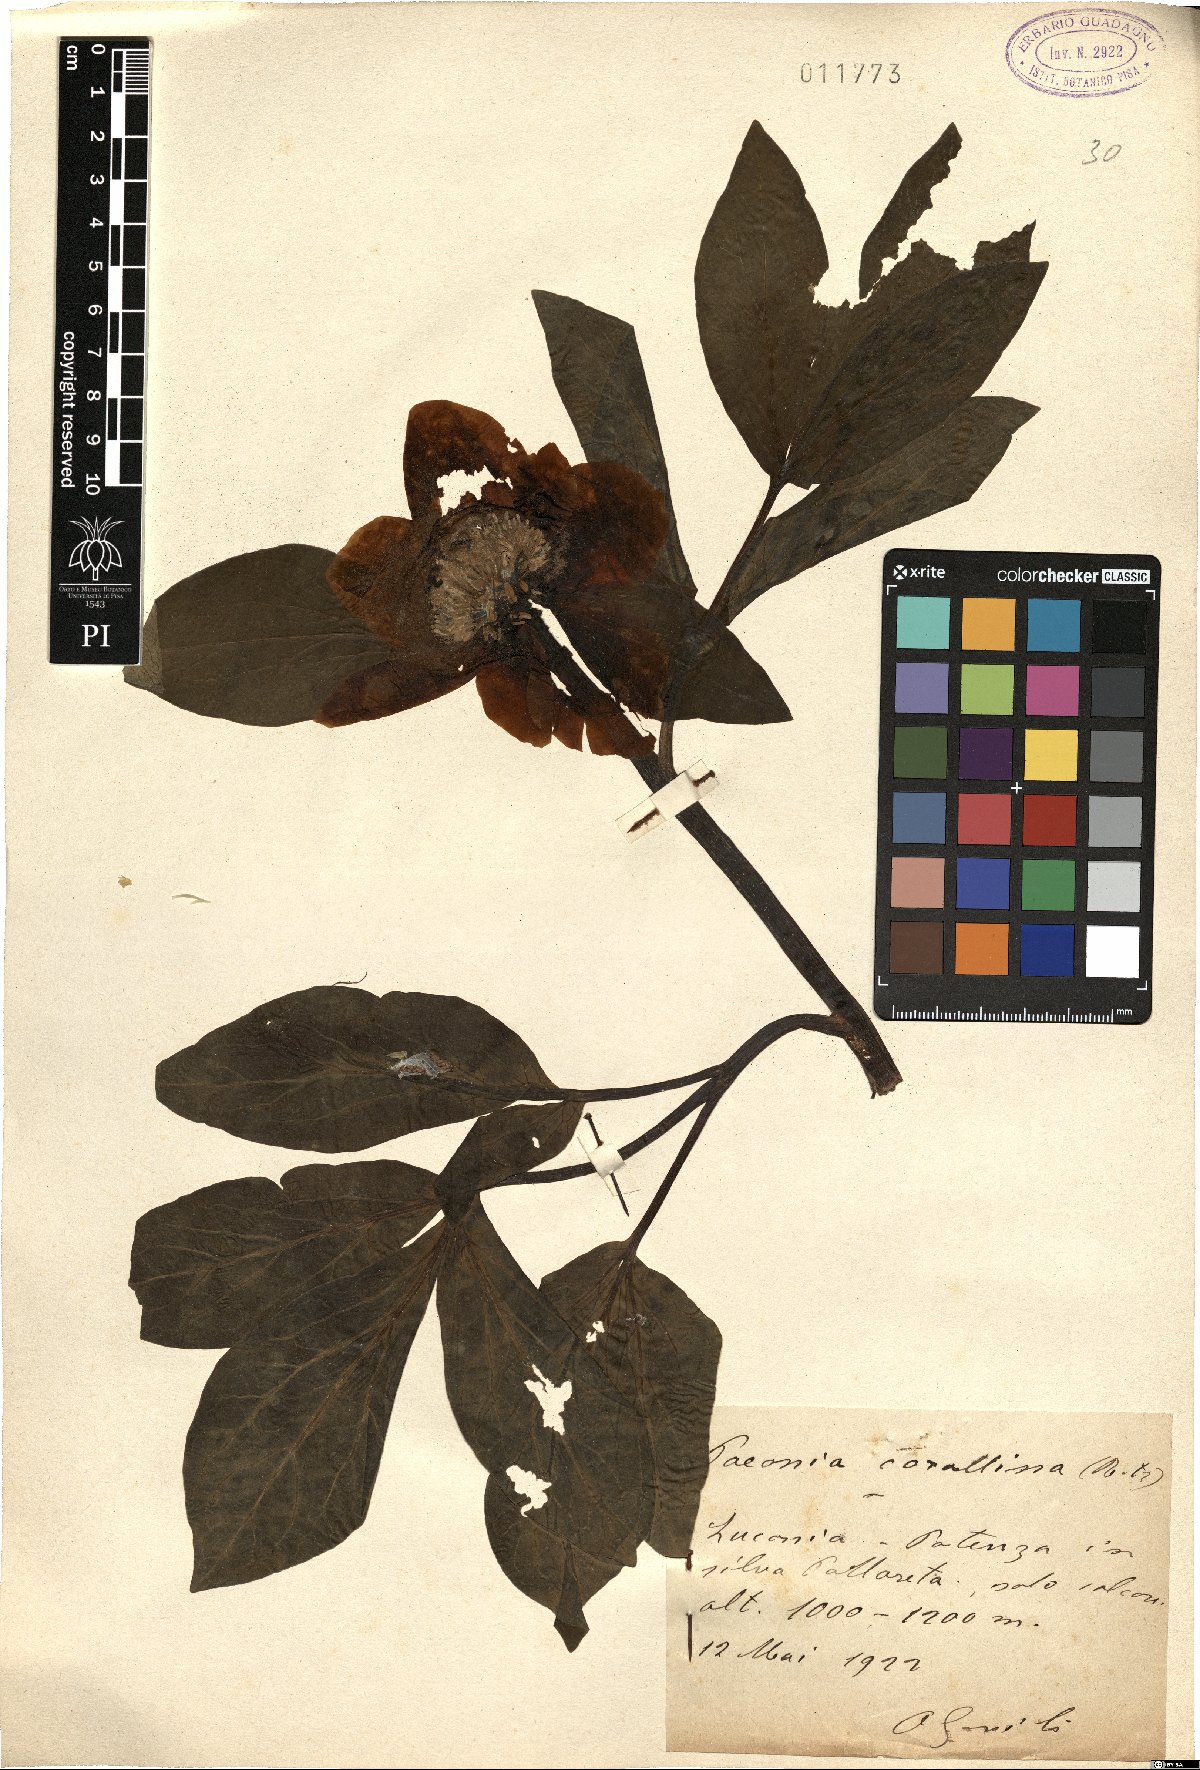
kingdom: Plantae
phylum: Tracheophyta
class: Magnoliopsida
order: Saxifragales
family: Paeoniaceae
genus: Paeonia
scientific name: Paeonia mascula
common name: Peony
